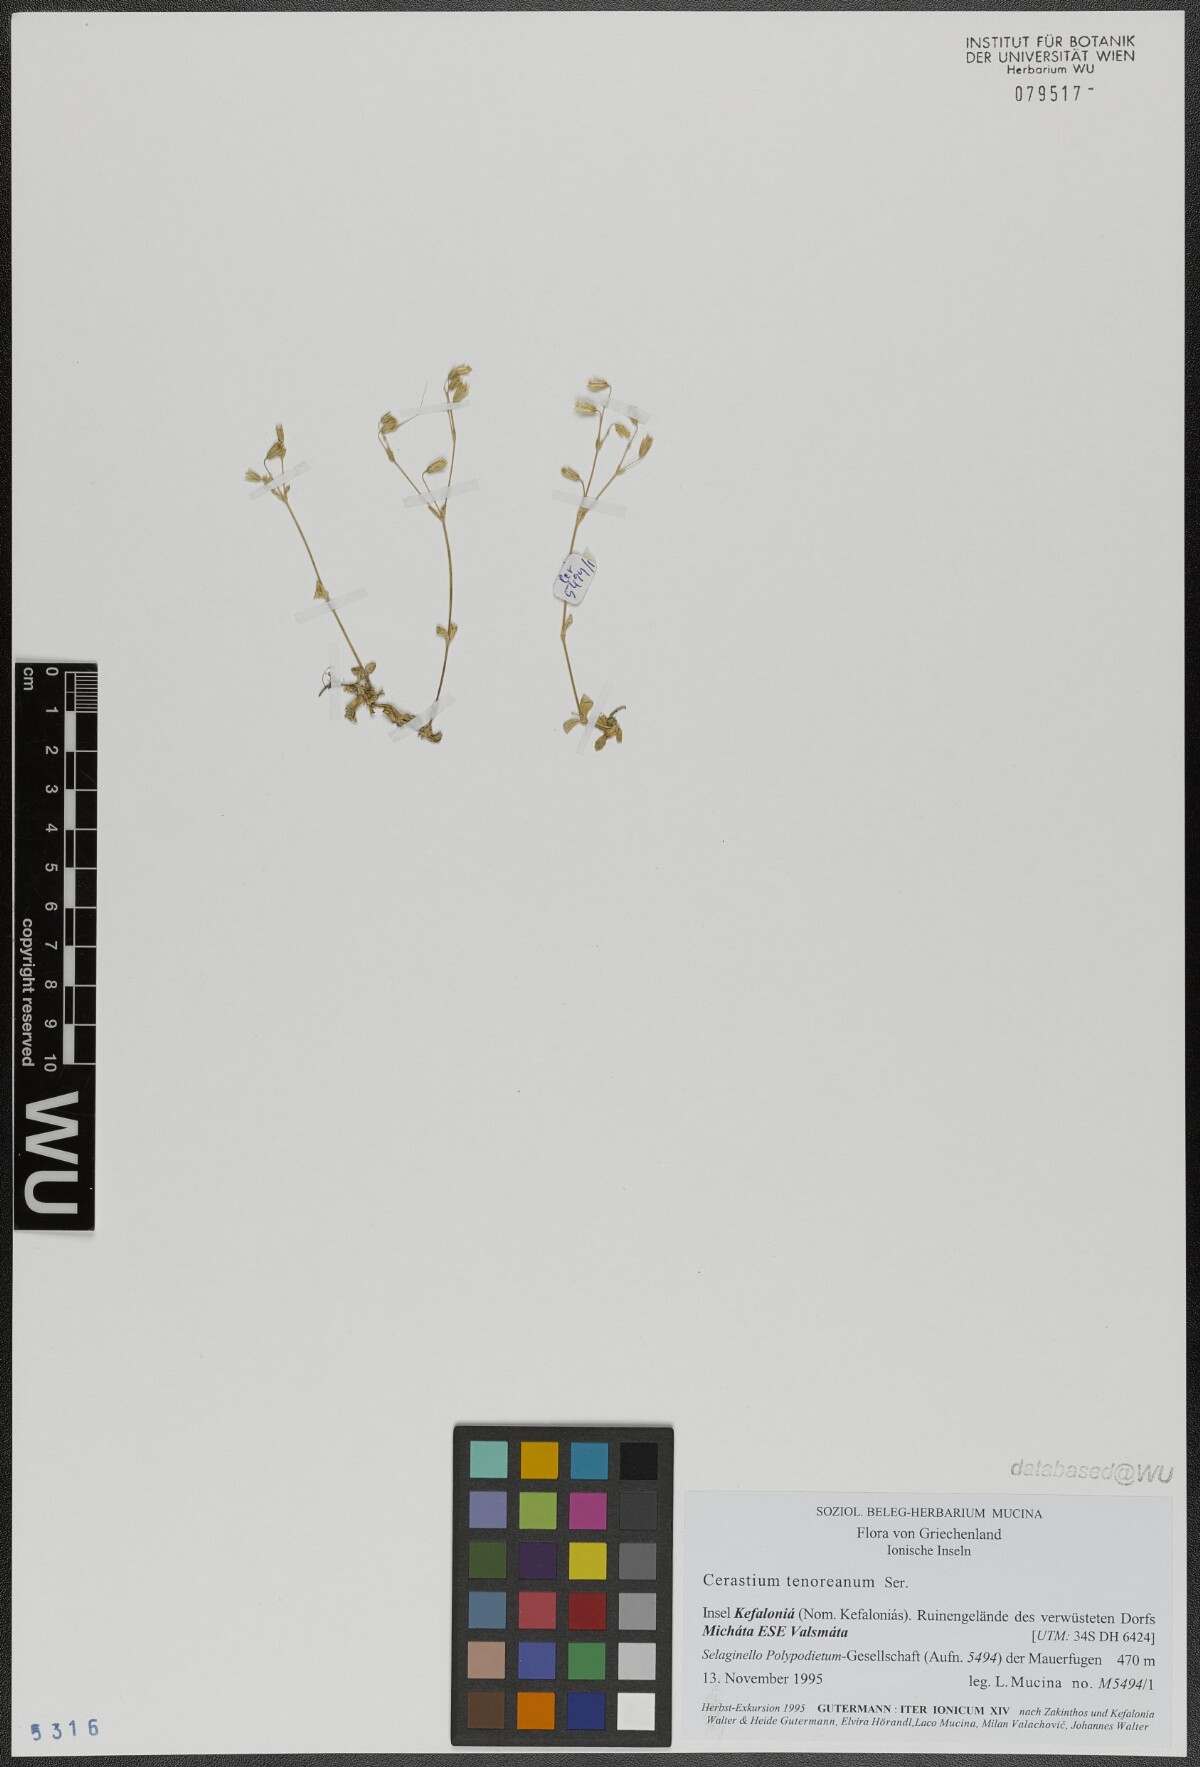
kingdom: Plantae
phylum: Tracheophyta
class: Magnoliopsida
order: Caryophyllales
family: Caryophyllaceae
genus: Cerastium
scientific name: Cerastium tenoreanum
